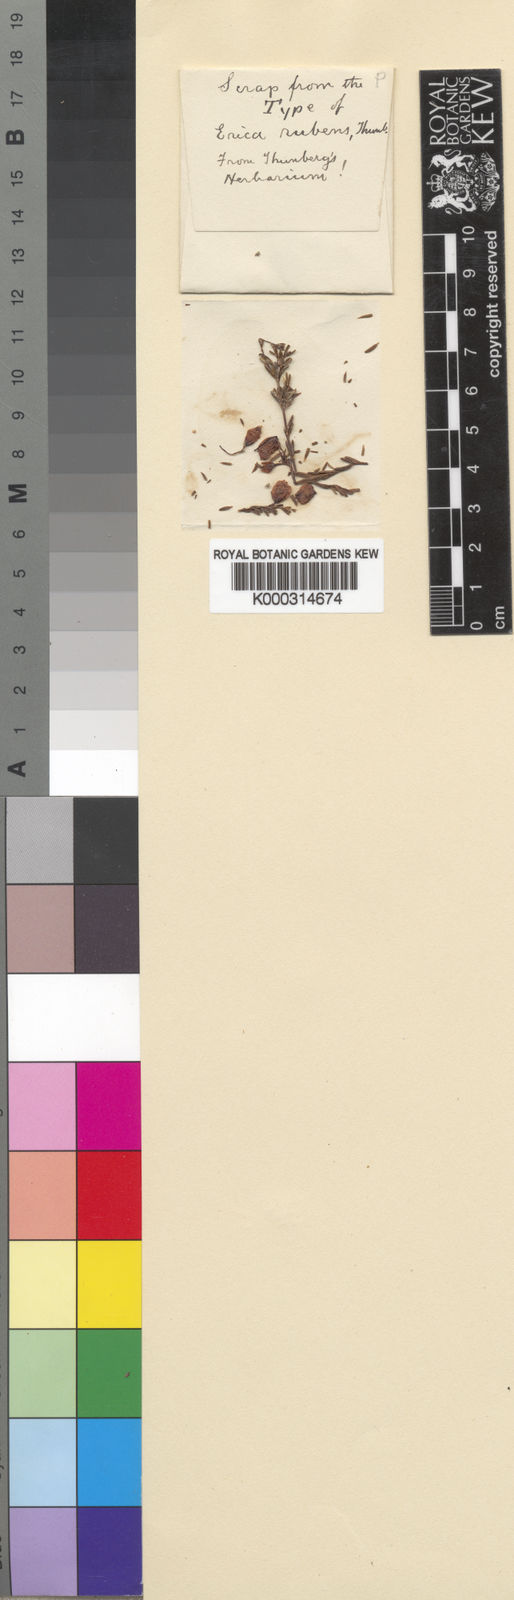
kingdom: Plantae
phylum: Tracheophyta
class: Magnoliopsida
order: Ericales
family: Ericaceae
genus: Erica
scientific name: Erica rubens
